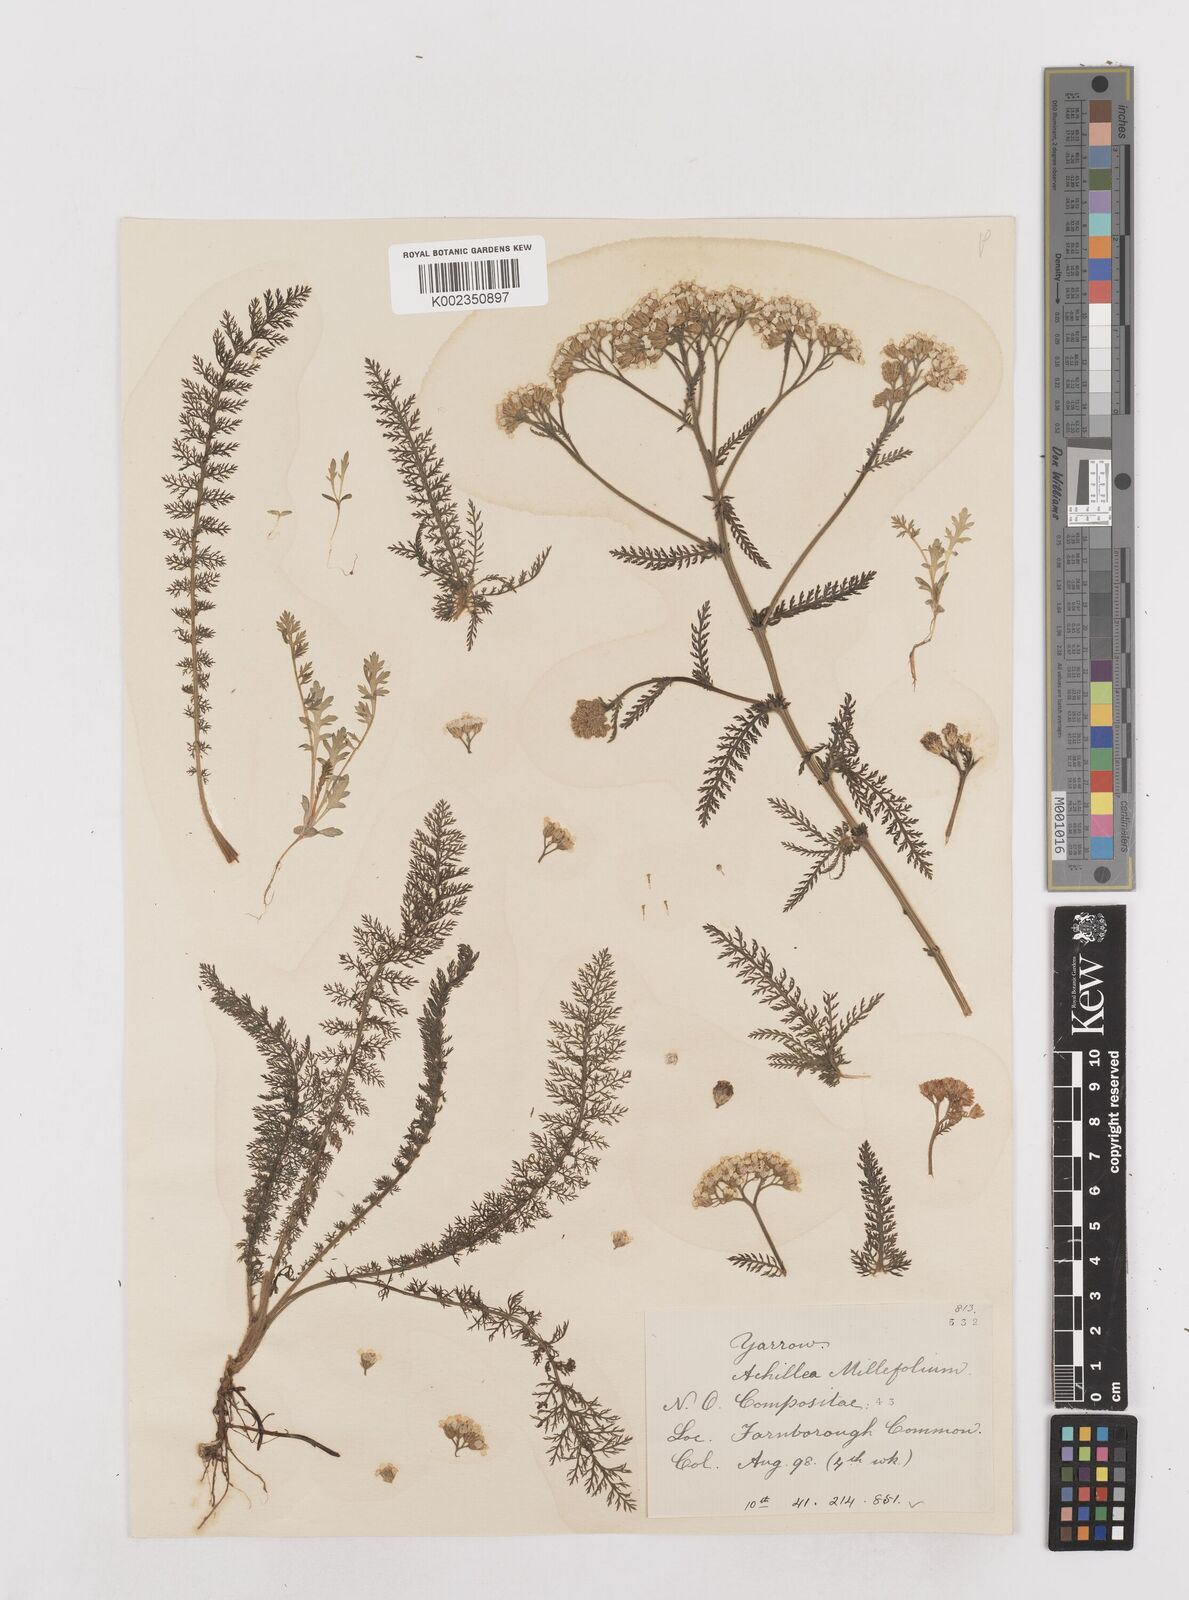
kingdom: Plantae
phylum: Tracheophyta
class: Magnoliopsida
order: Asterales
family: Asteraceae
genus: Achillea
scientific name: Achillea millefolium
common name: Yarrow
